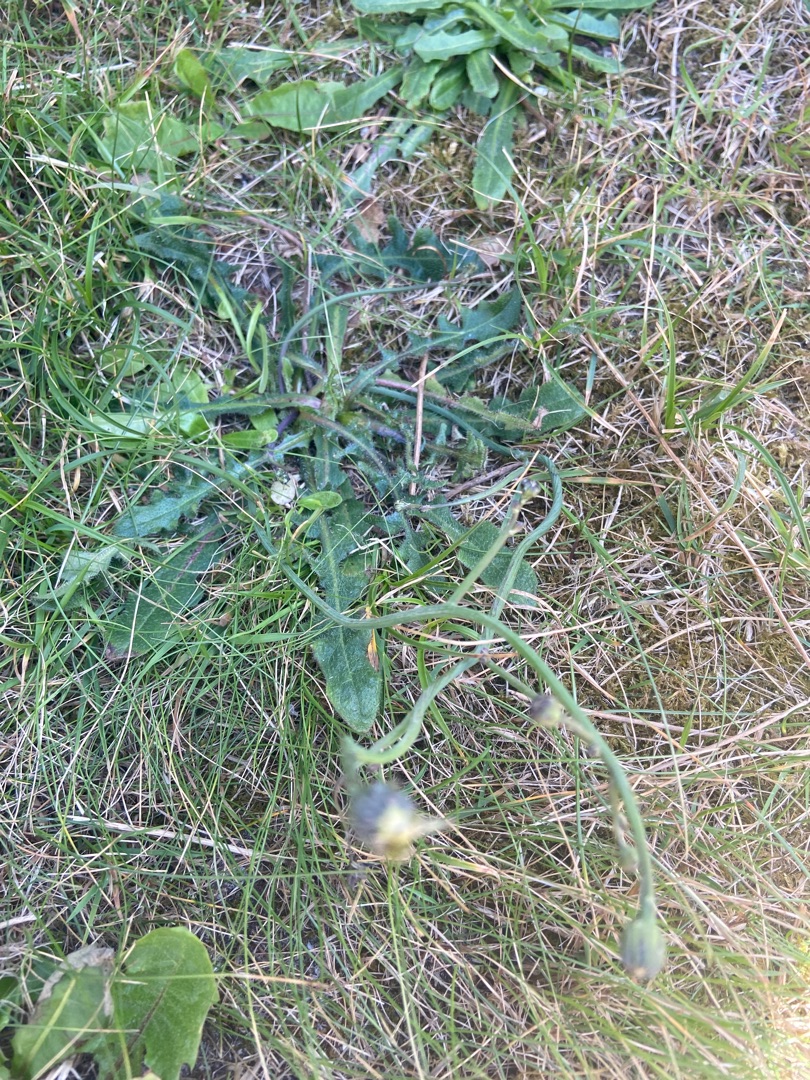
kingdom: Plantae
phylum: Tracheophyta
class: Magnoliopsida
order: Asterales
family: Asteraceae
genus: Hypochaeris
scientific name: Hypochaeris radicata
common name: Almindelig kongepen
